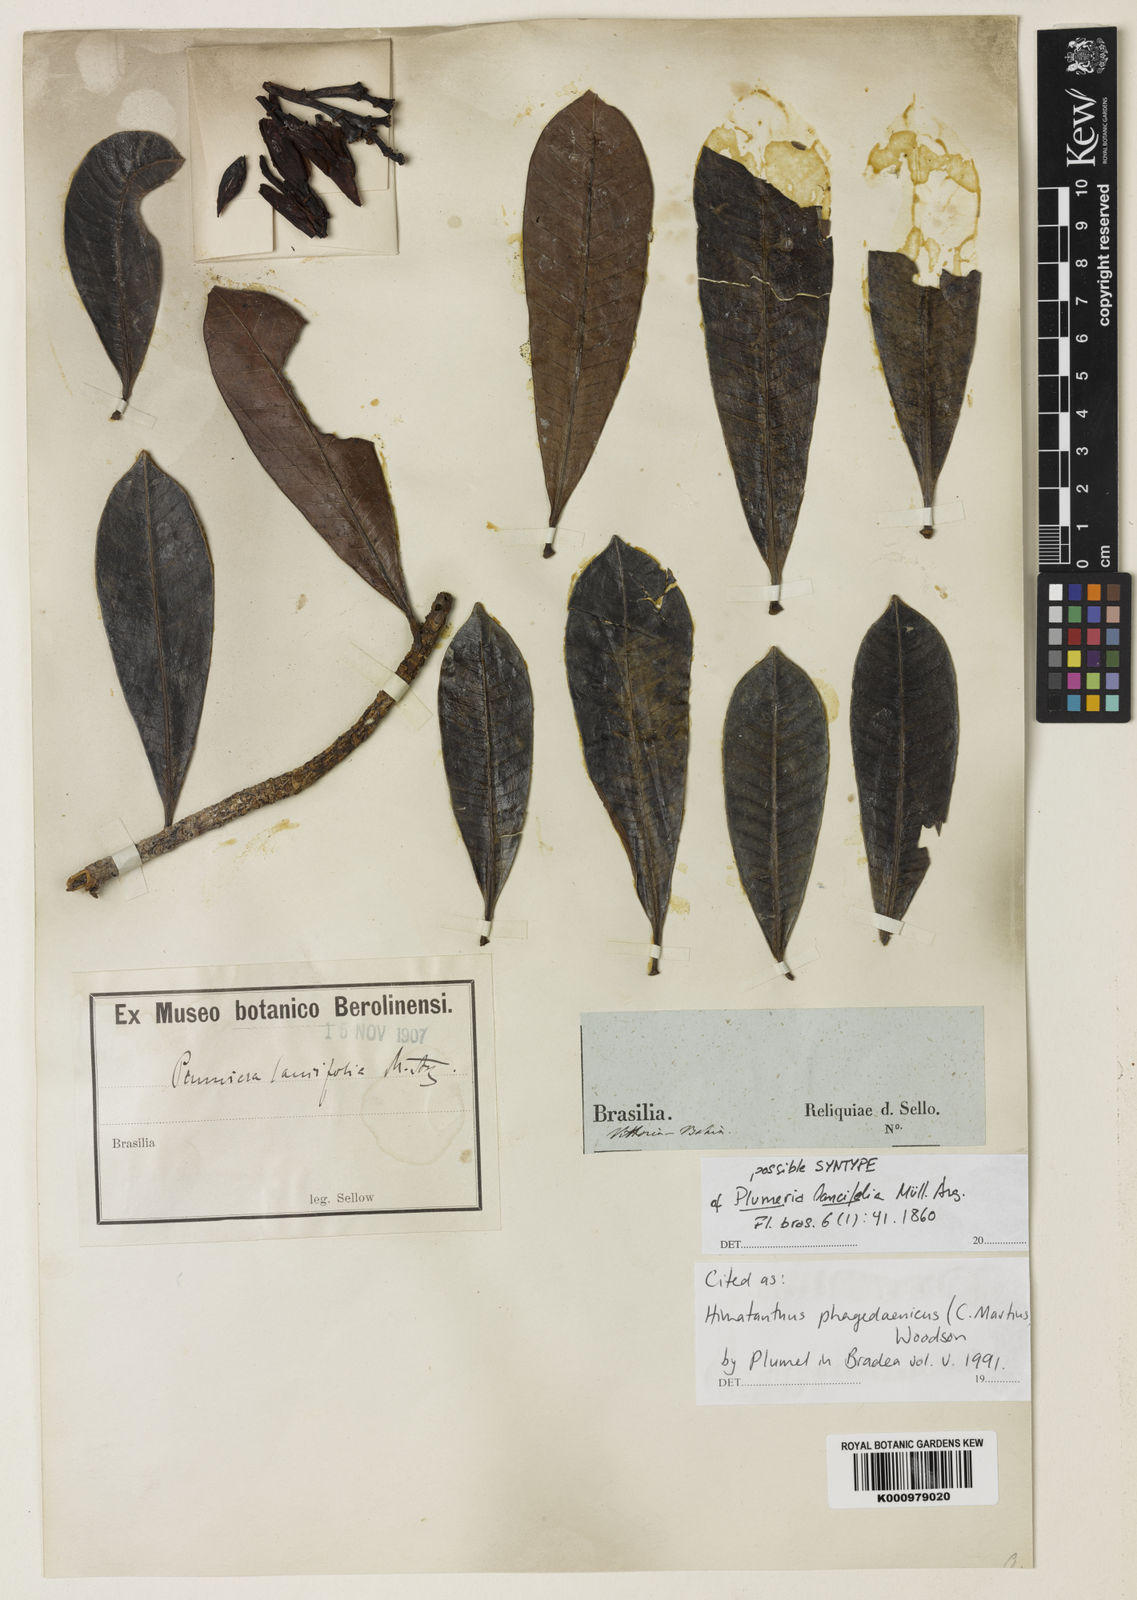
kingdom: Plantae
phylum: Tracheophyta
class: Magnoliopsida
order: Gentianales
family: Apocynaceae
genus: Himatanthus
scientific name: Himatanthus phagedaenicus
